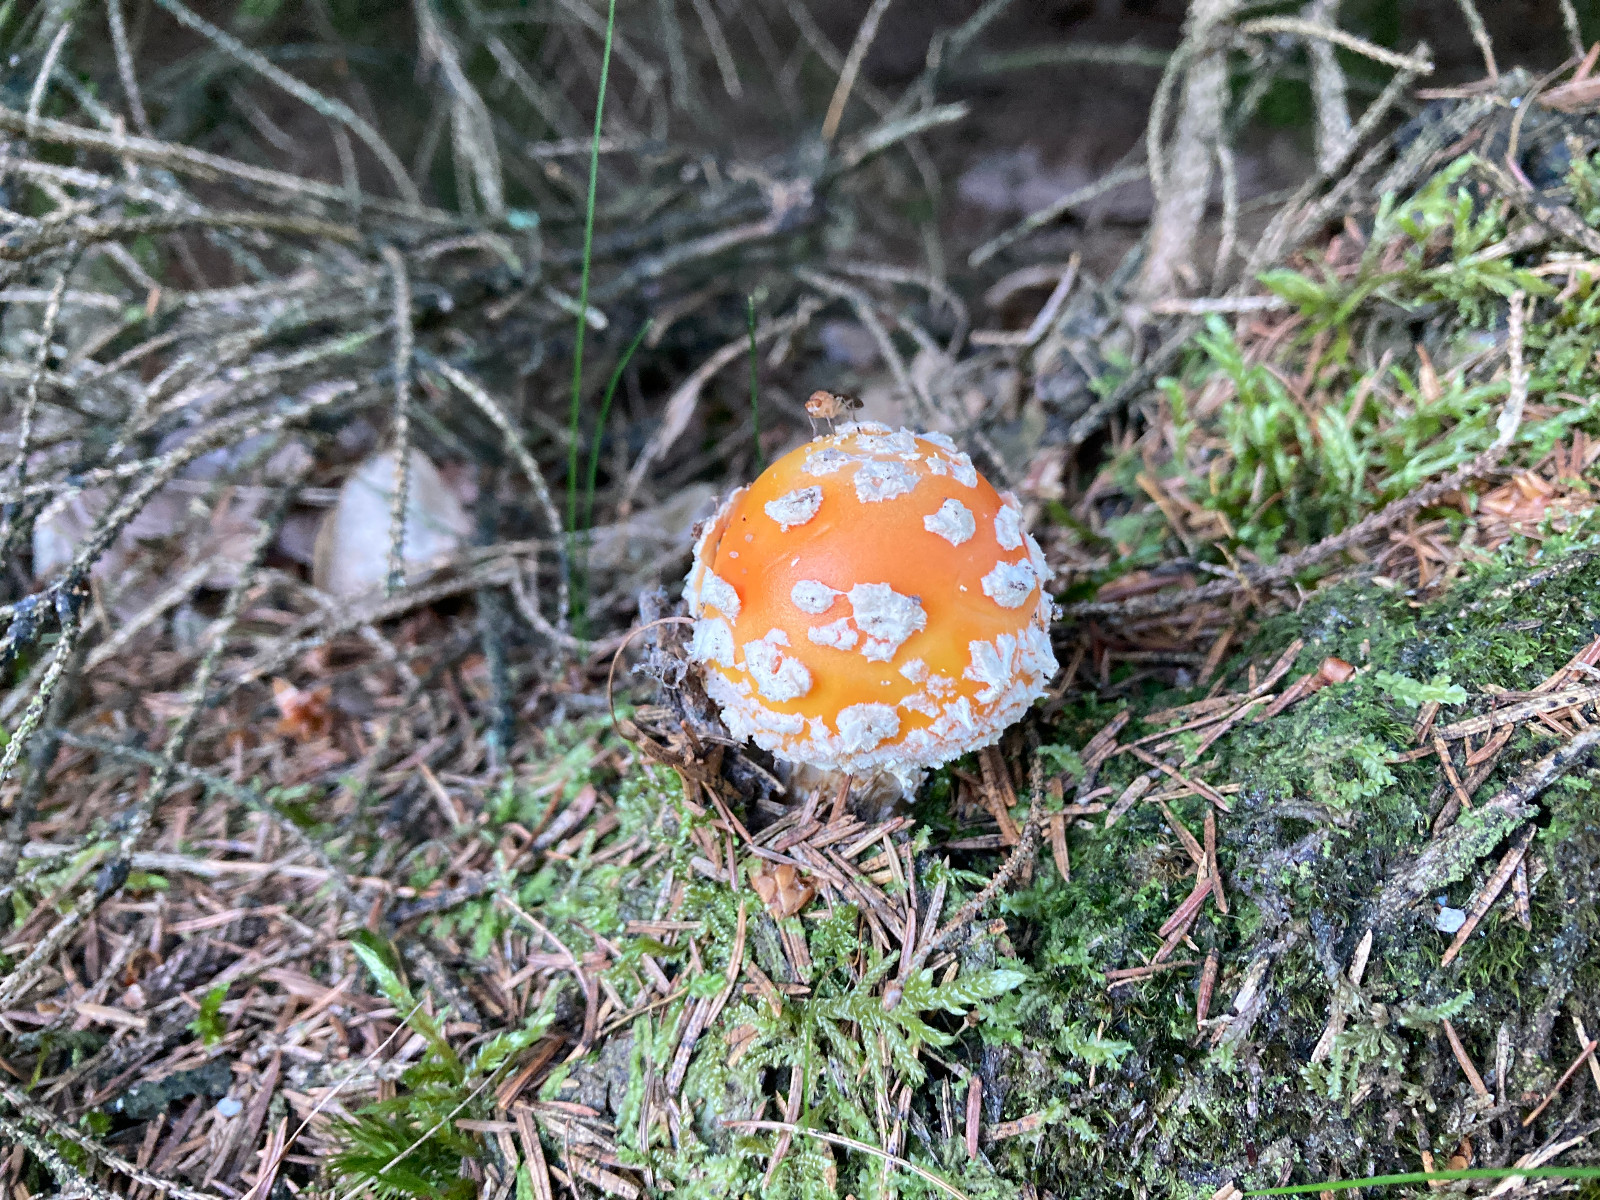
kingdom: Fungi
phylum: Basidiomycota
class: Agaricomycetes
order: Agaricales
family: Amanitaceae
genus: Amanita
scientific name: Amanita muscaria
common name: rød fluesvamp
